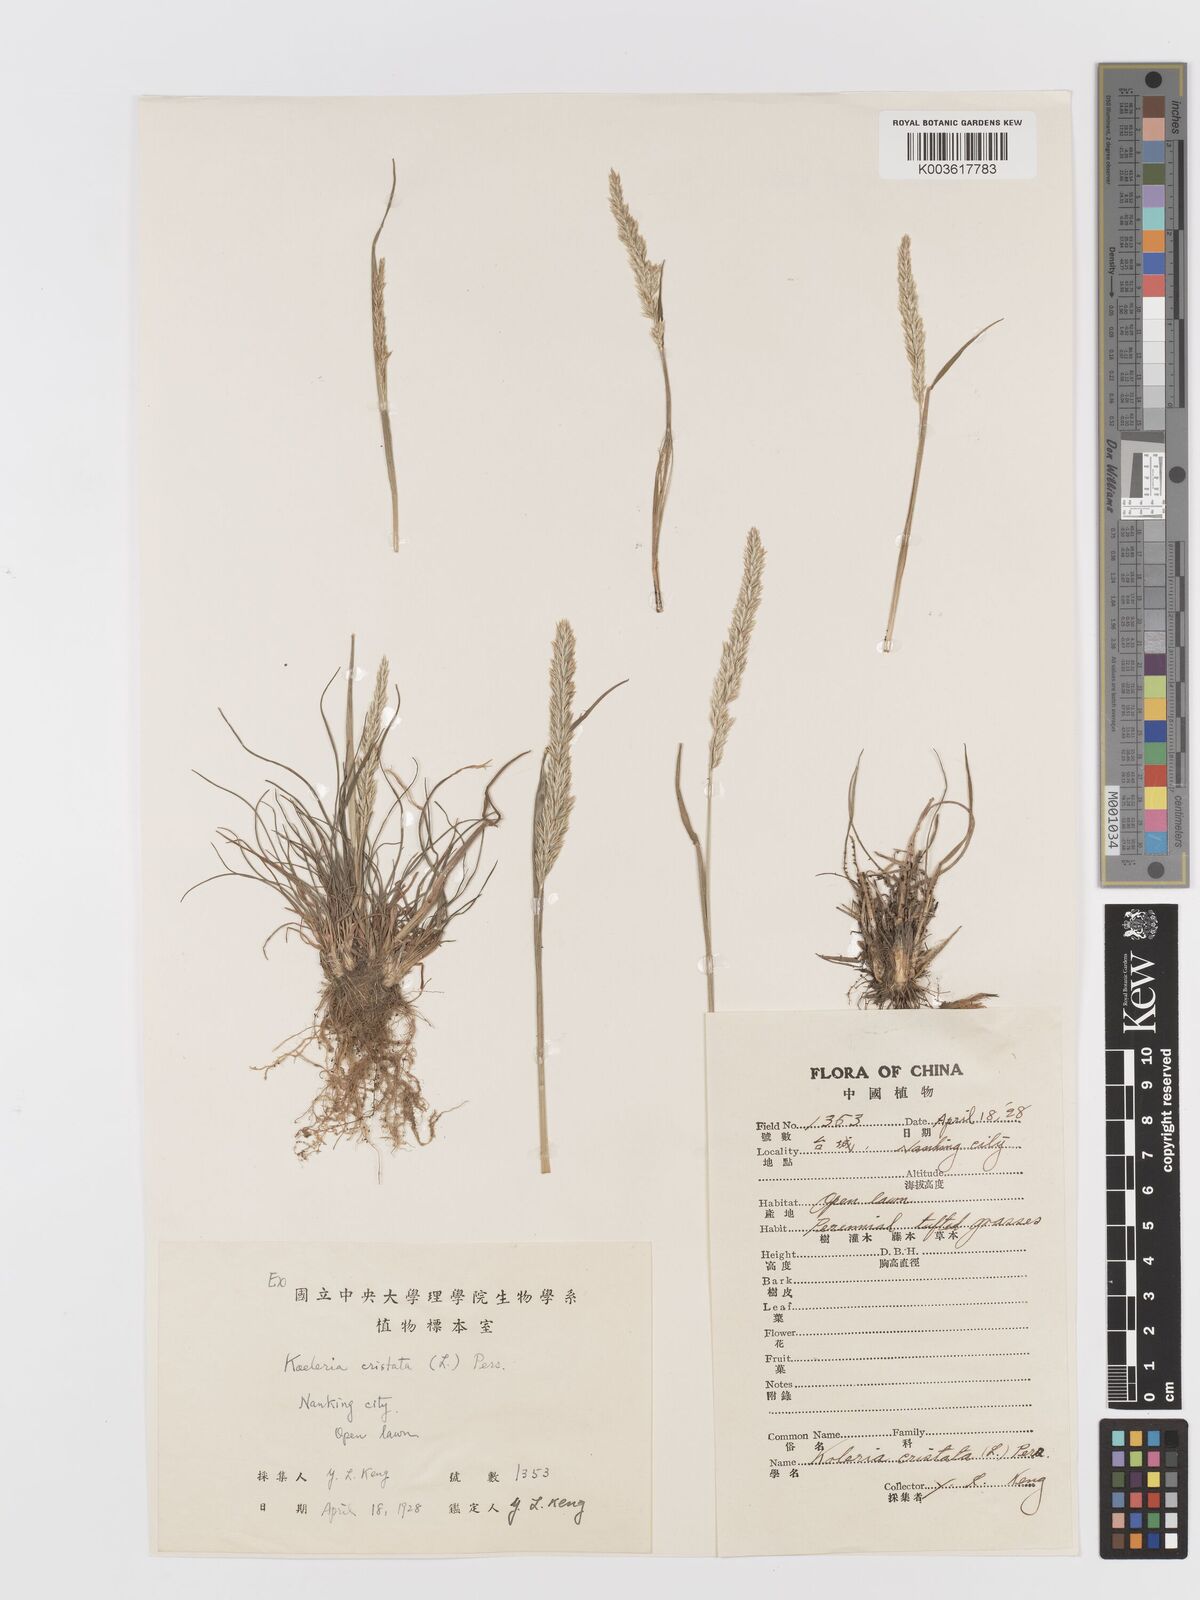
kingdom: Plantae
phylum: Tracheophyta
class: Liliopsida
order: Poales
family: Poaceae
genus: Koeleria
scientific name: Koeleria macrantha
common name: Crested hair-grass
